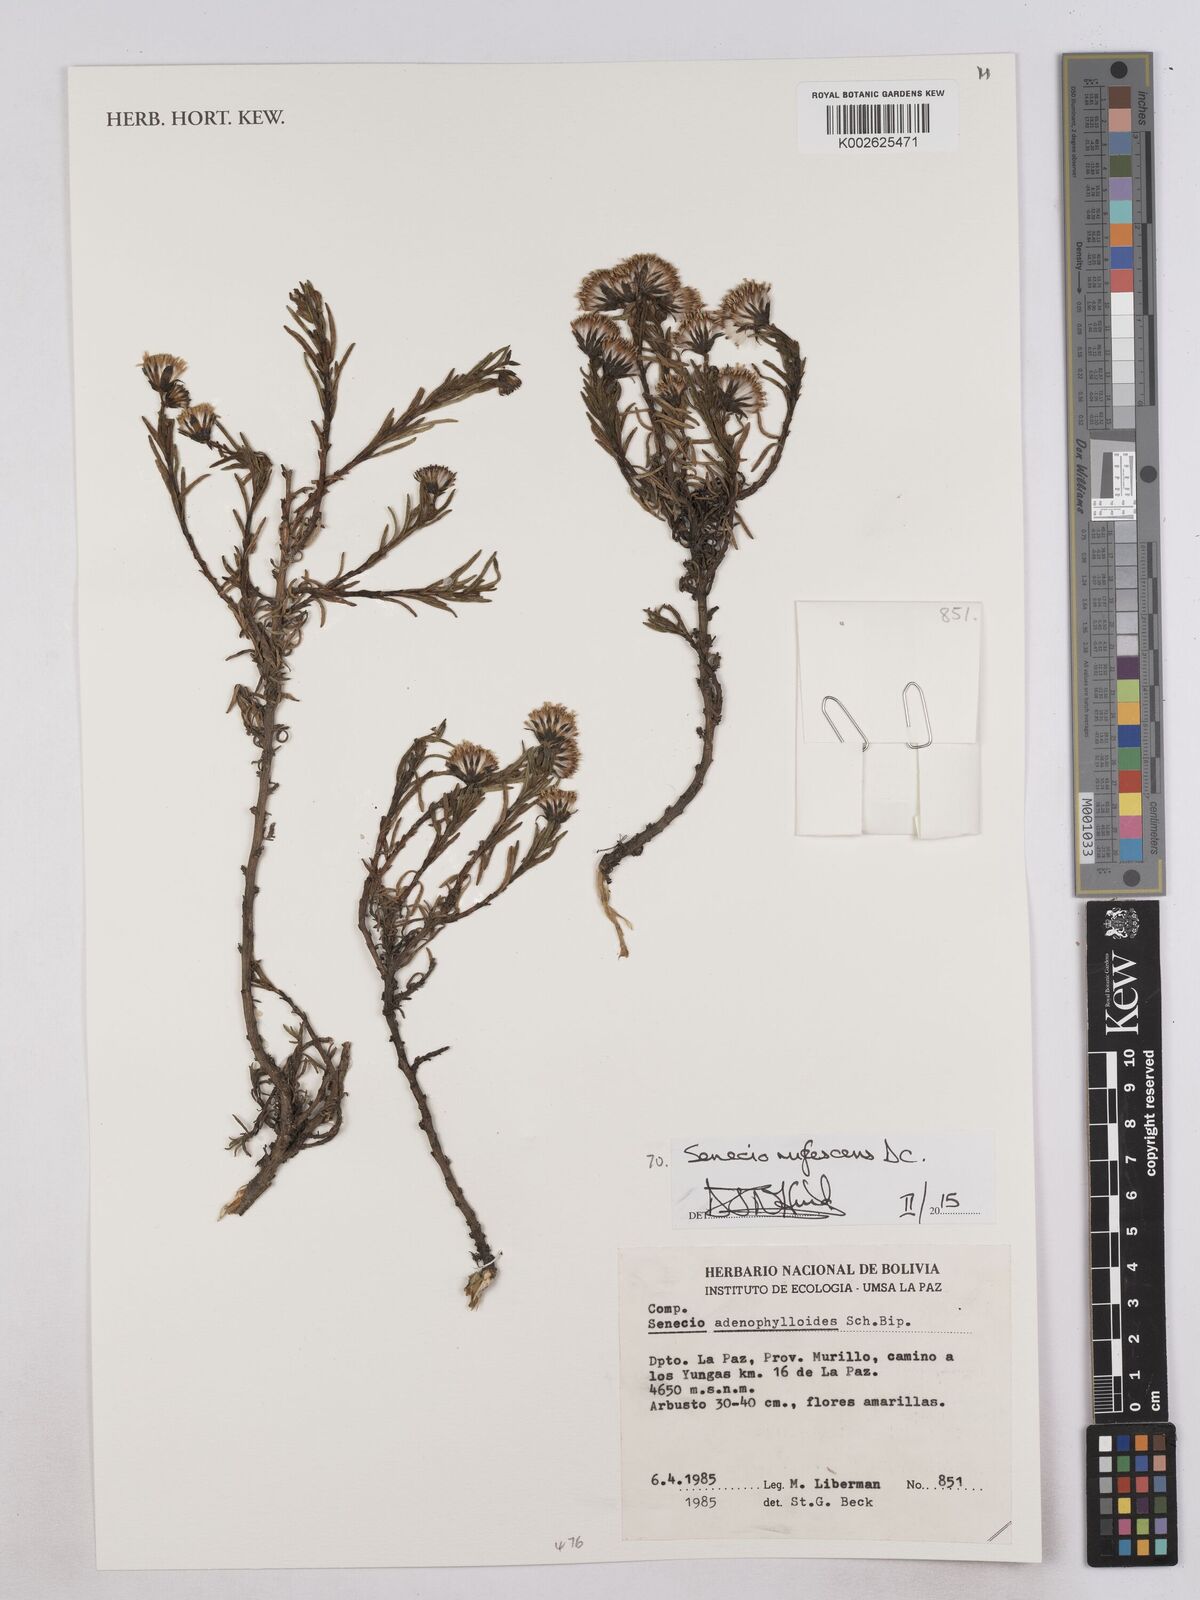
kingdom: Plantae
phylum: Tracheophyta
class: Magnoliopsida
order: Asterales
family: Asteraceae
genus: Culcitium
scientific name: Culcitium canescens
